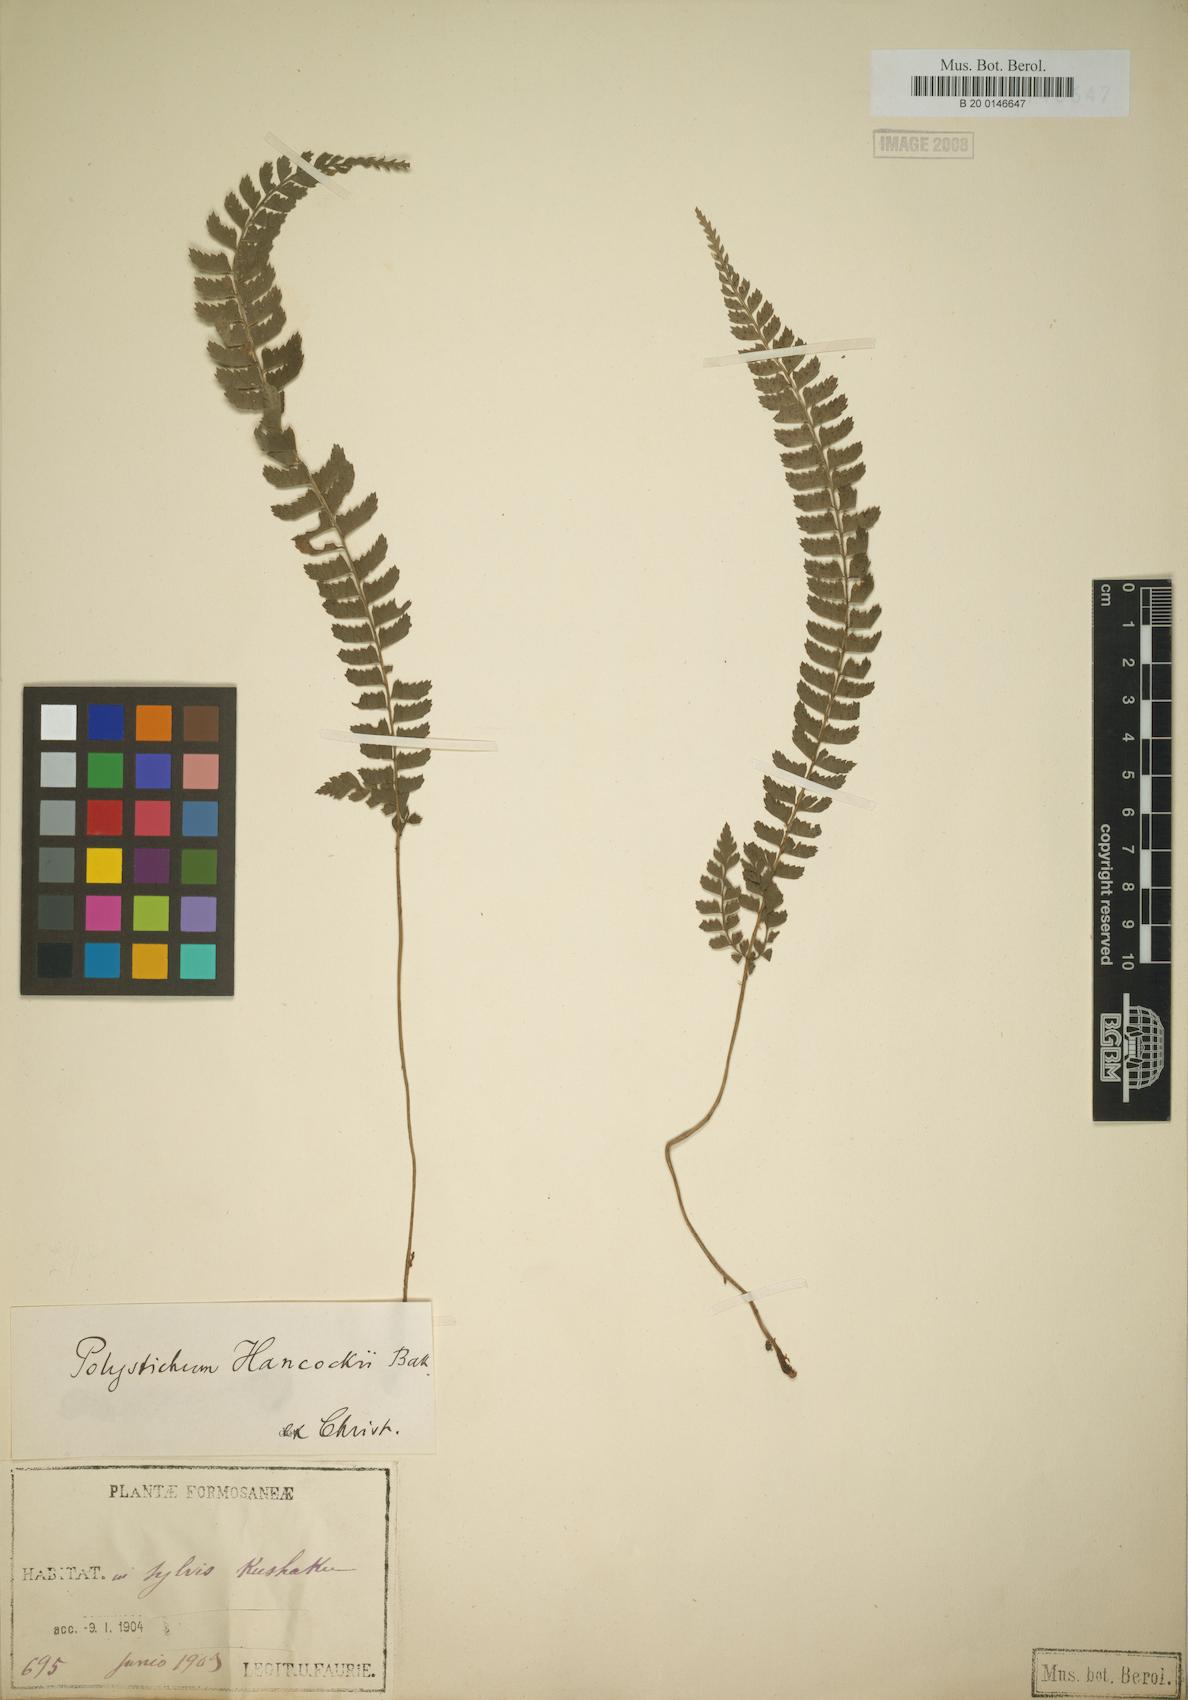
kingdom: Plantae
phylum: Tracheophyta
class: Polypodiopsida
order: Polypodiales
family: Dryopteridaceae
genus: Polystichum
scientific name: Polystichum hancockii
